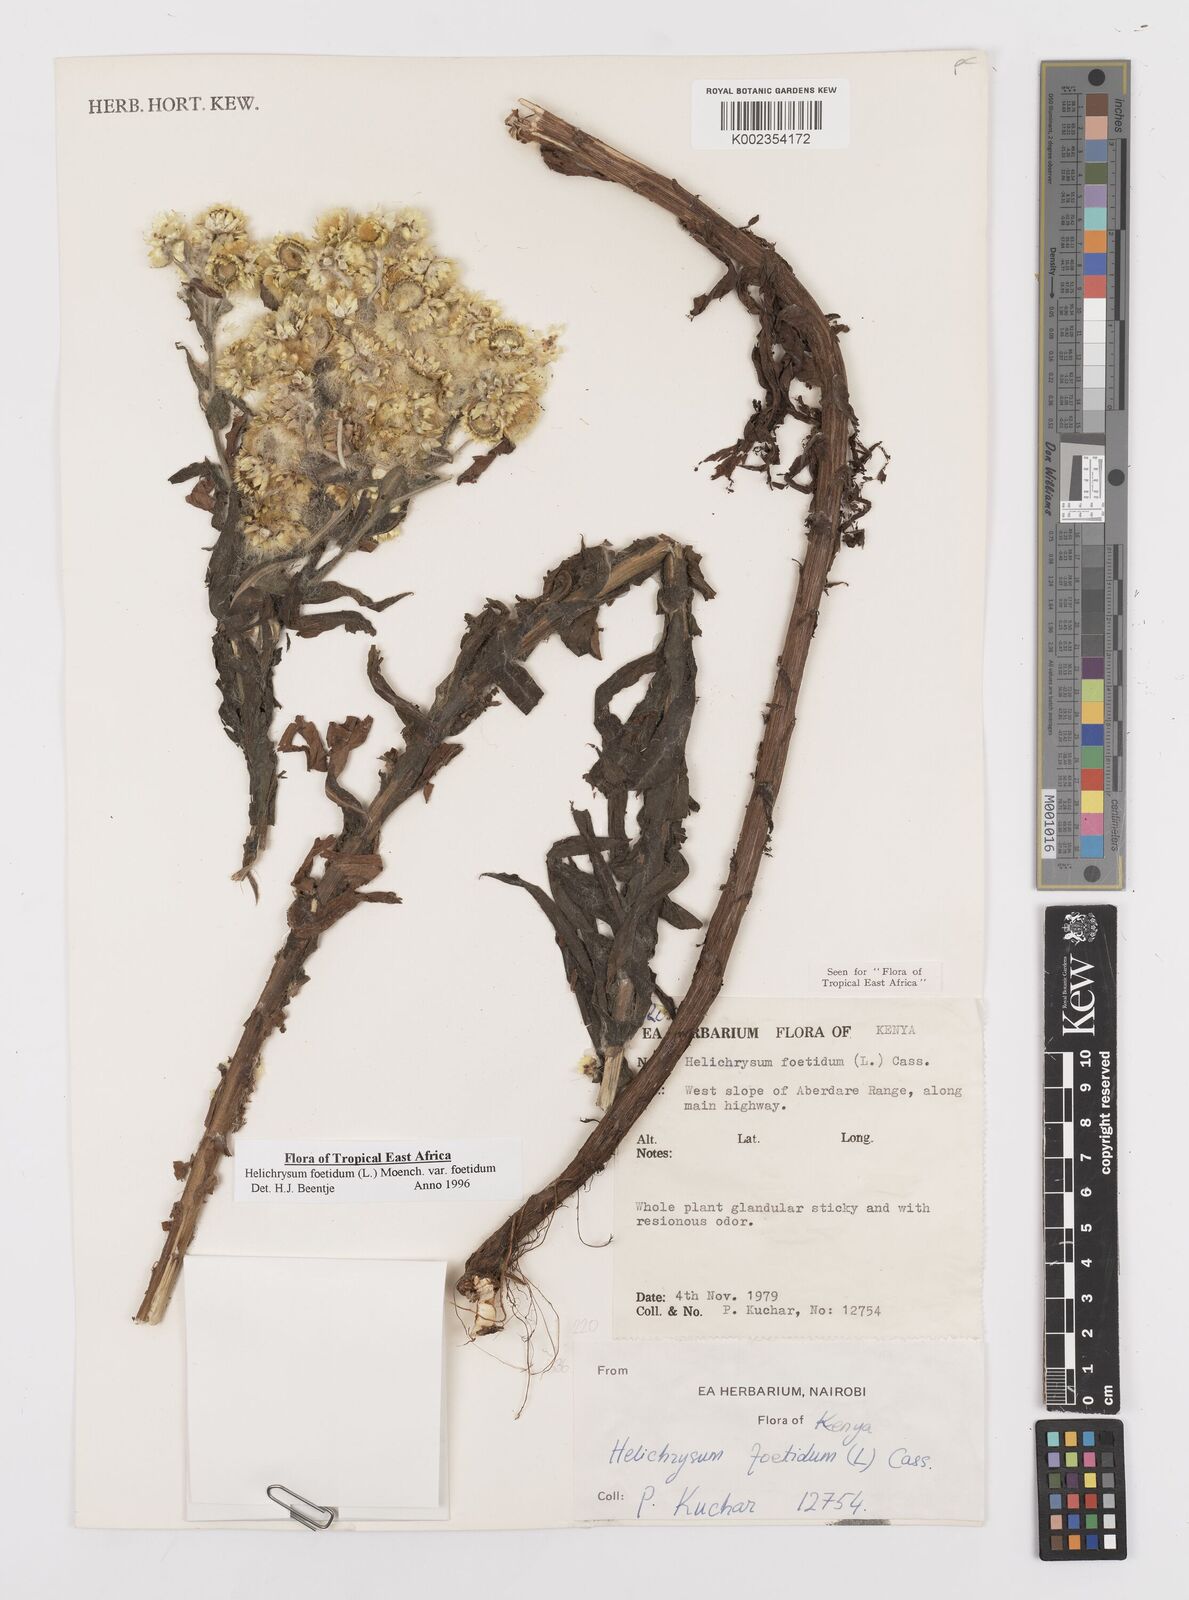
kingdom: Plantae
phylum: Tracheophyta
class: Magnoliopsida
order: Asterales
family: Asteraceae
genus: Helichrysum
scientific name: Helichrysum foetidum
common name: Stinking everlasting
